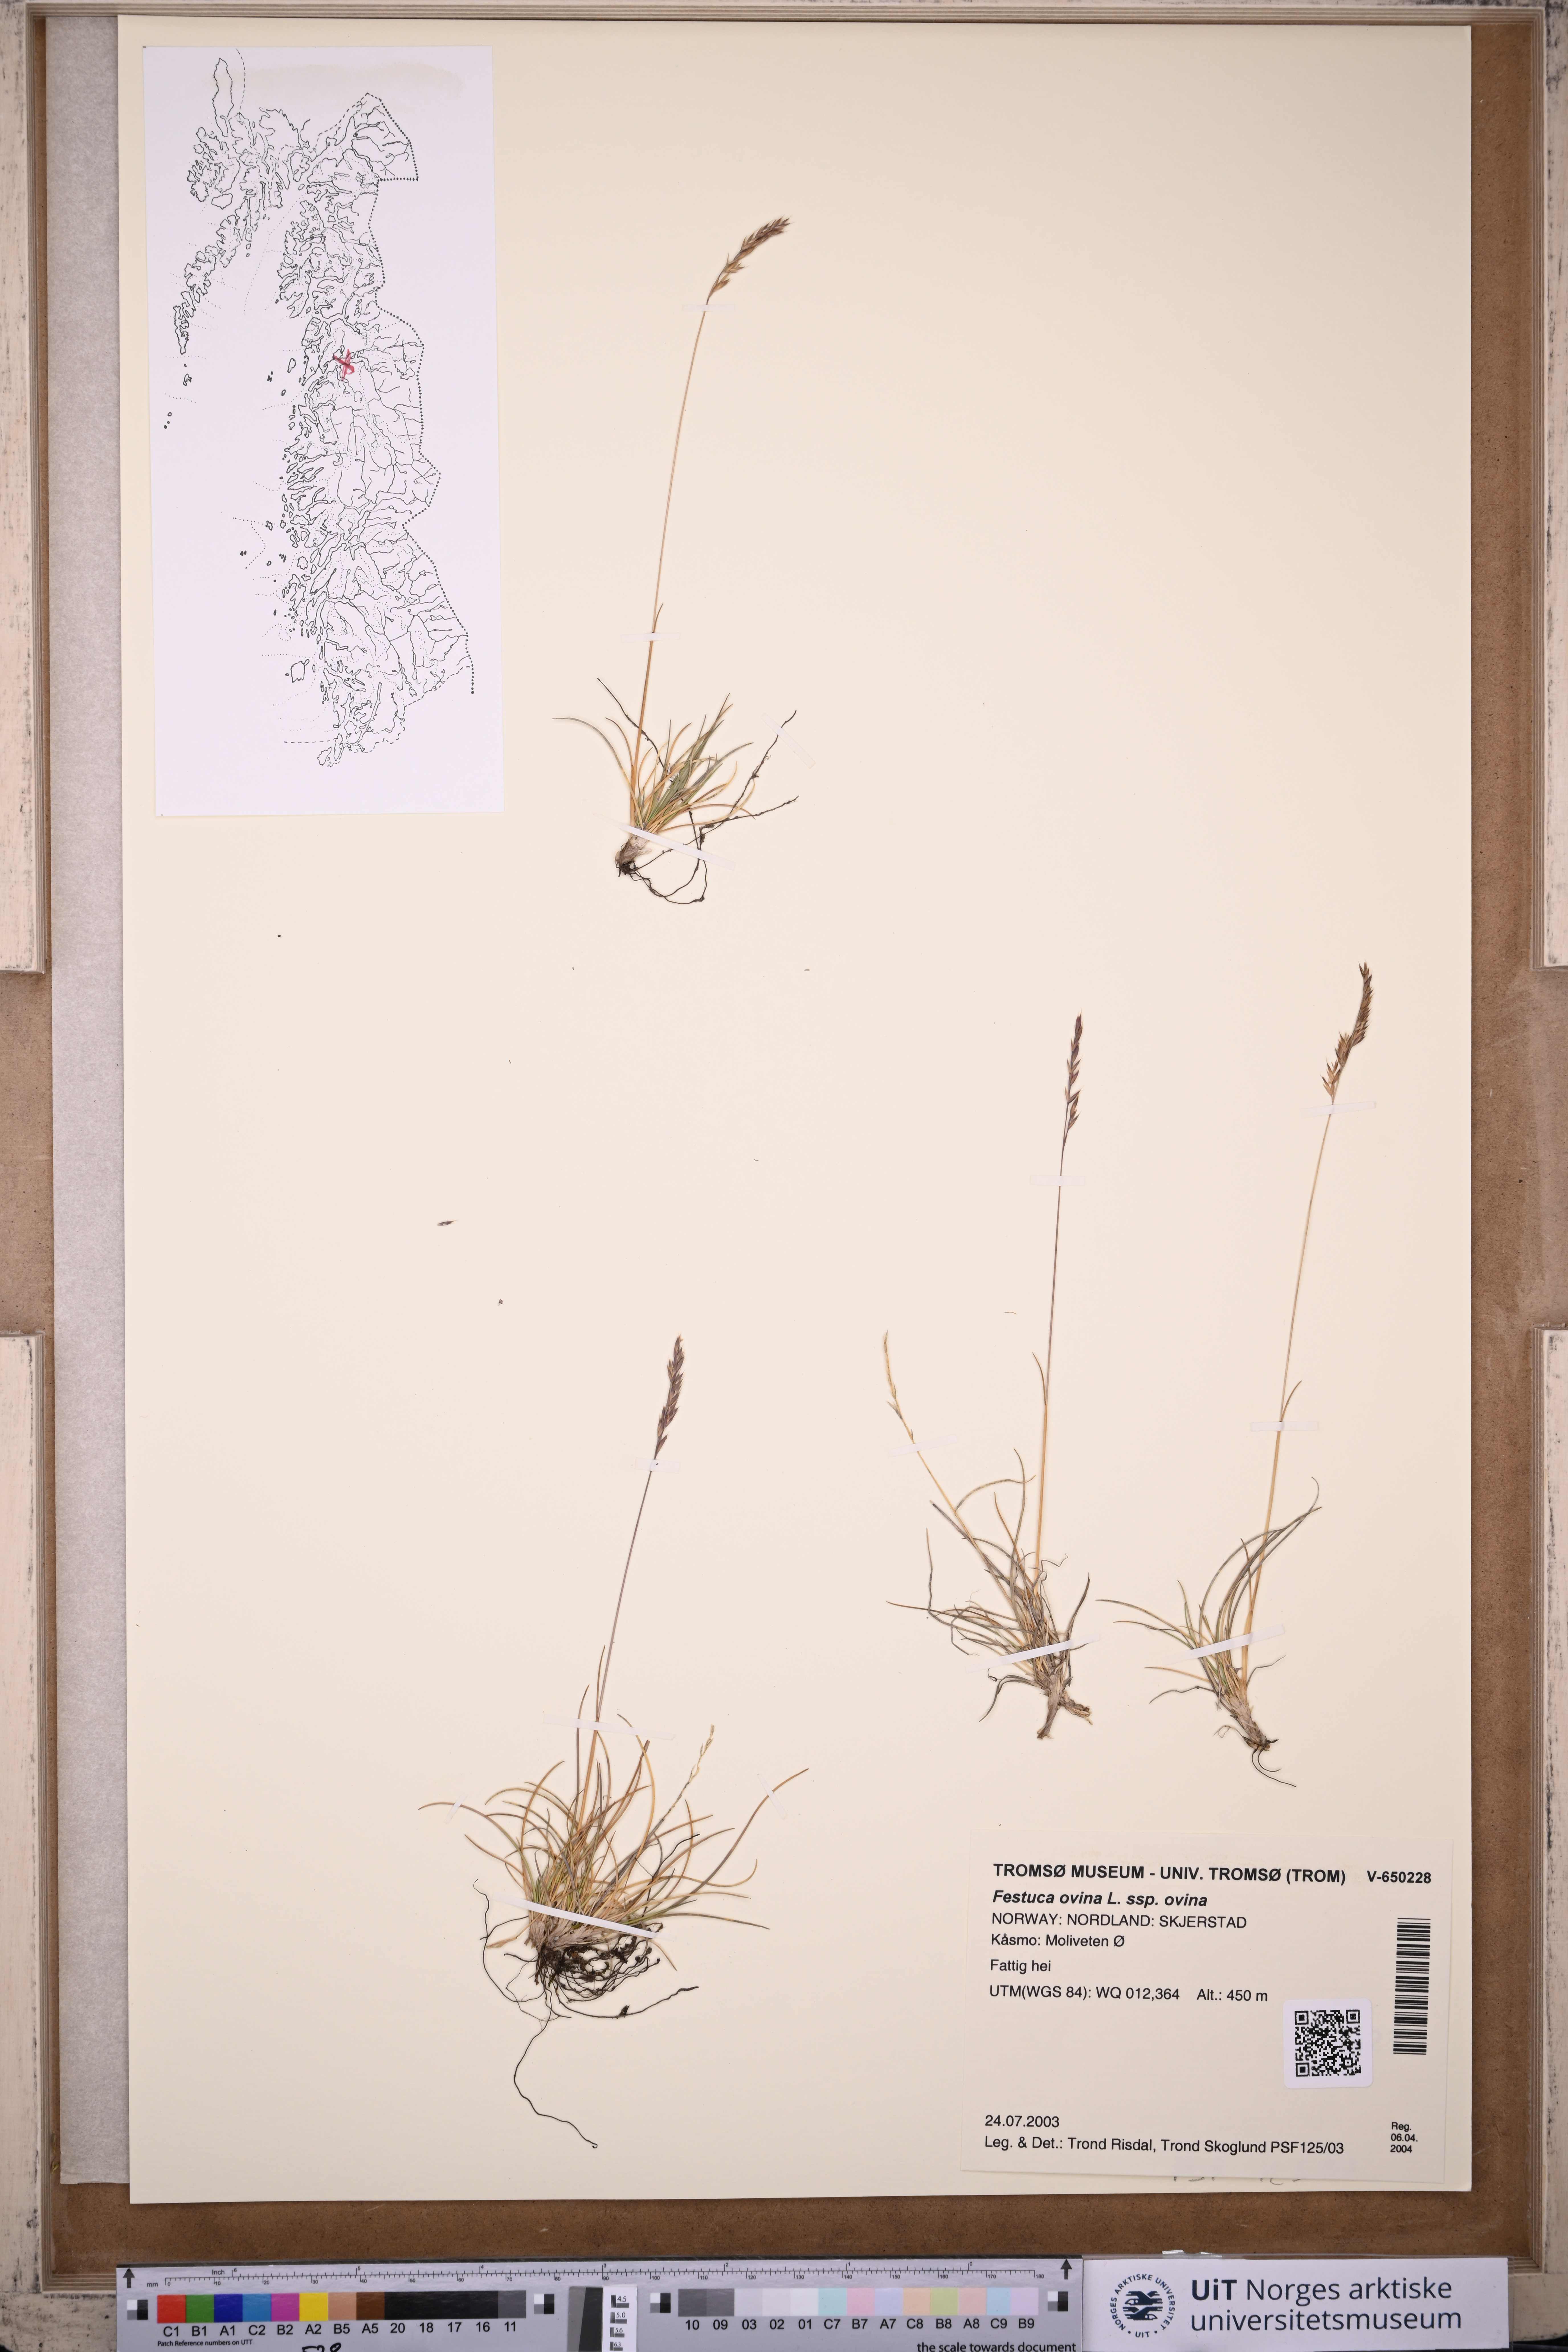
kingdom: Plantae
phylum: Tracheophyta
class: Liliopsida
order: Poales
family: Poaceae
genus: Festuca
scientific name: Festuca ovina
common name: Sheep fescue
